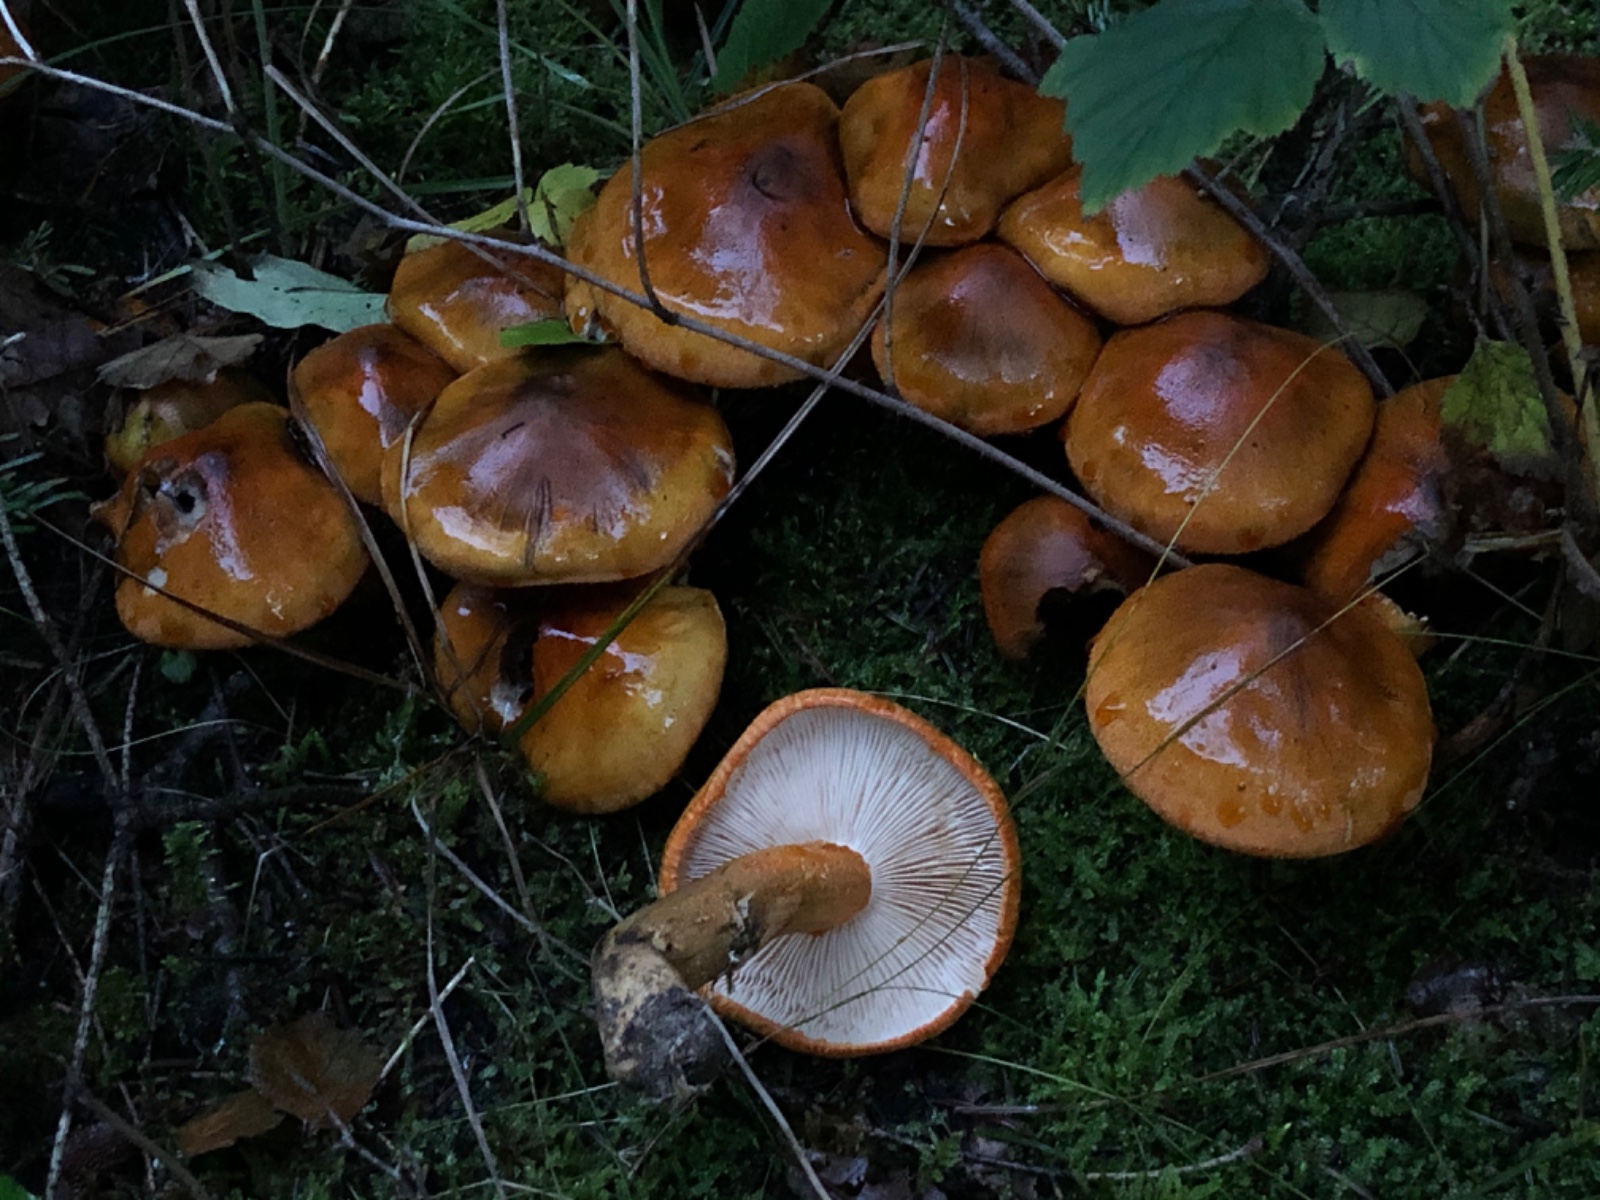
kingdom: Fungi
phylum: Basidiomycota
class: Agaricomycetes
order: Agaricales
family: Tricholomataceae
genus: Tricholoma
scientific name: Tricholoma aurantium
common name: orangegul ridderhat
